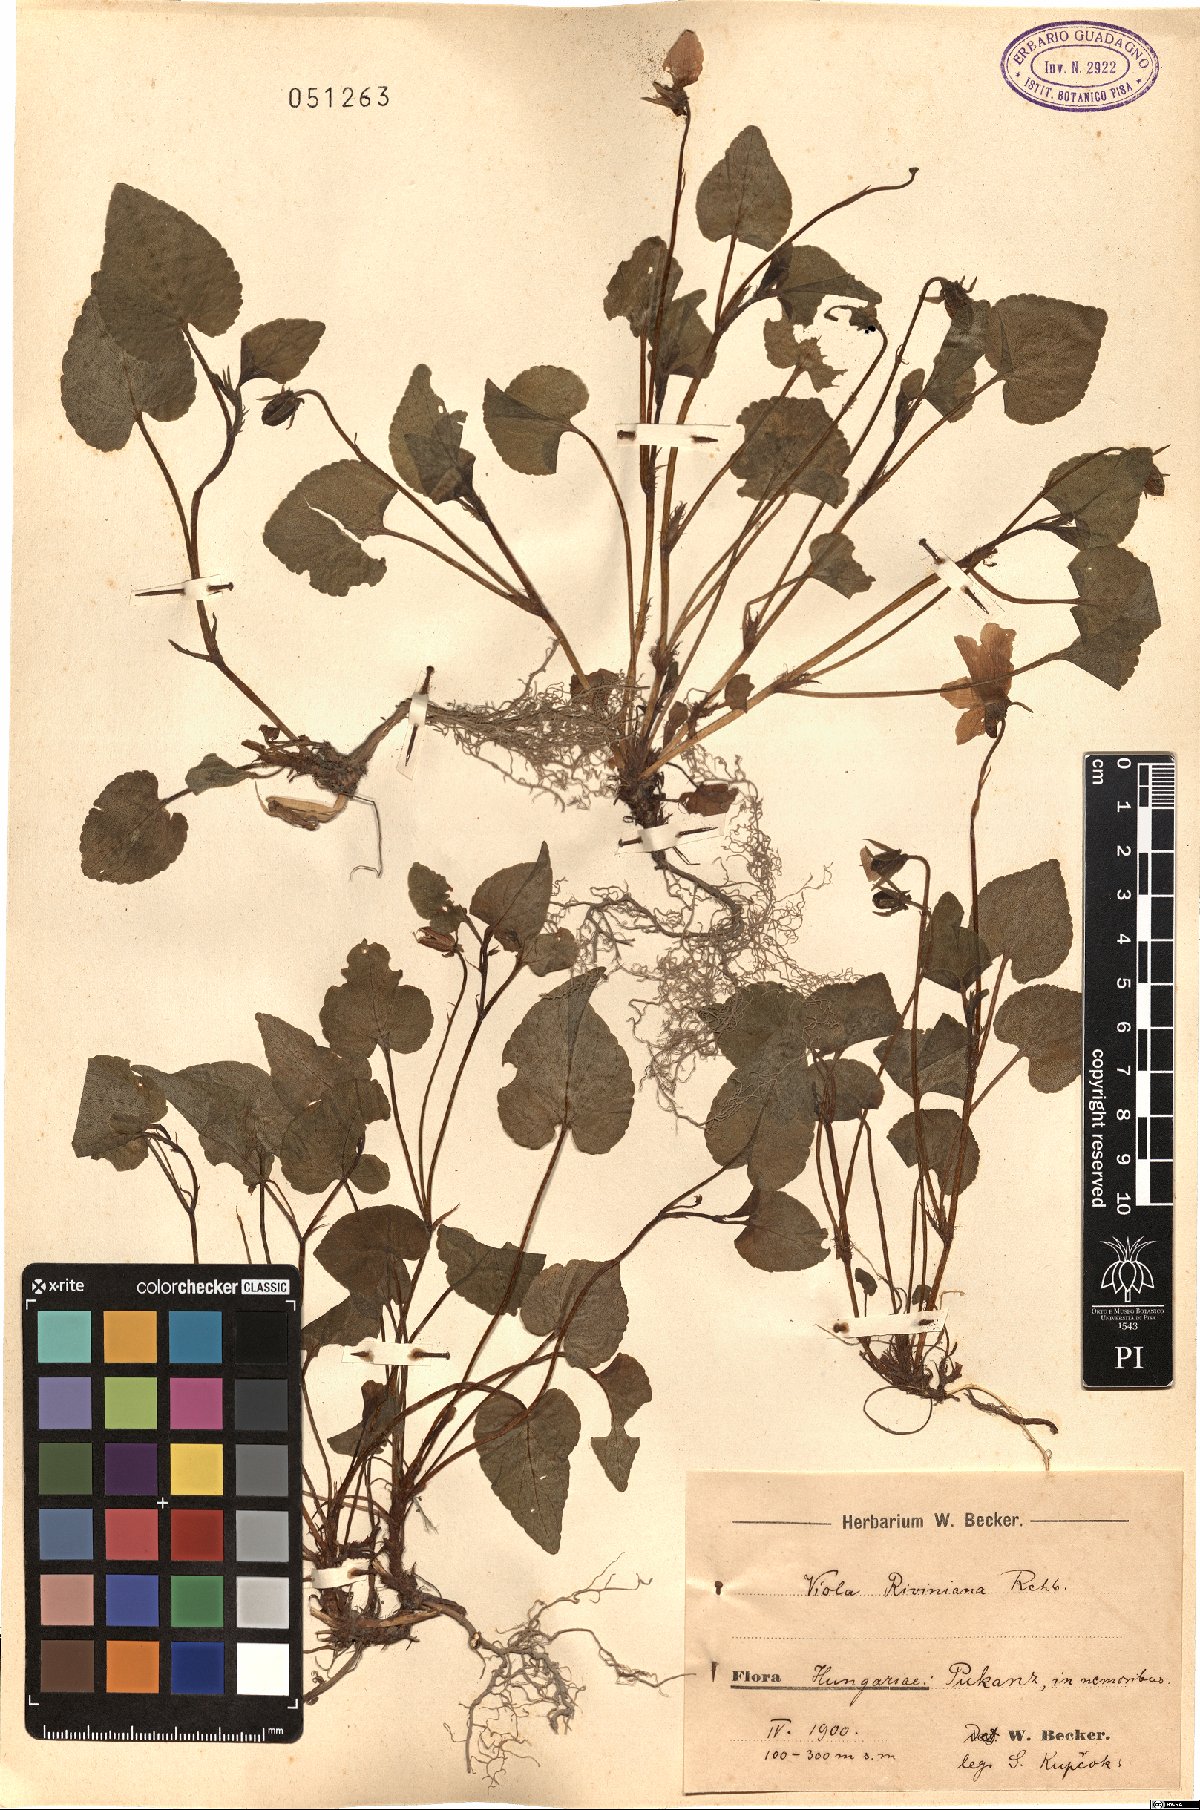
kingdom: Plantae
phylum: Tracheophyta
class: Magnoliopsida
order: Malpighiales
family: Violaceae
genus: Viola
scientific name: Viola riviniana
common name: Common dog-violet
